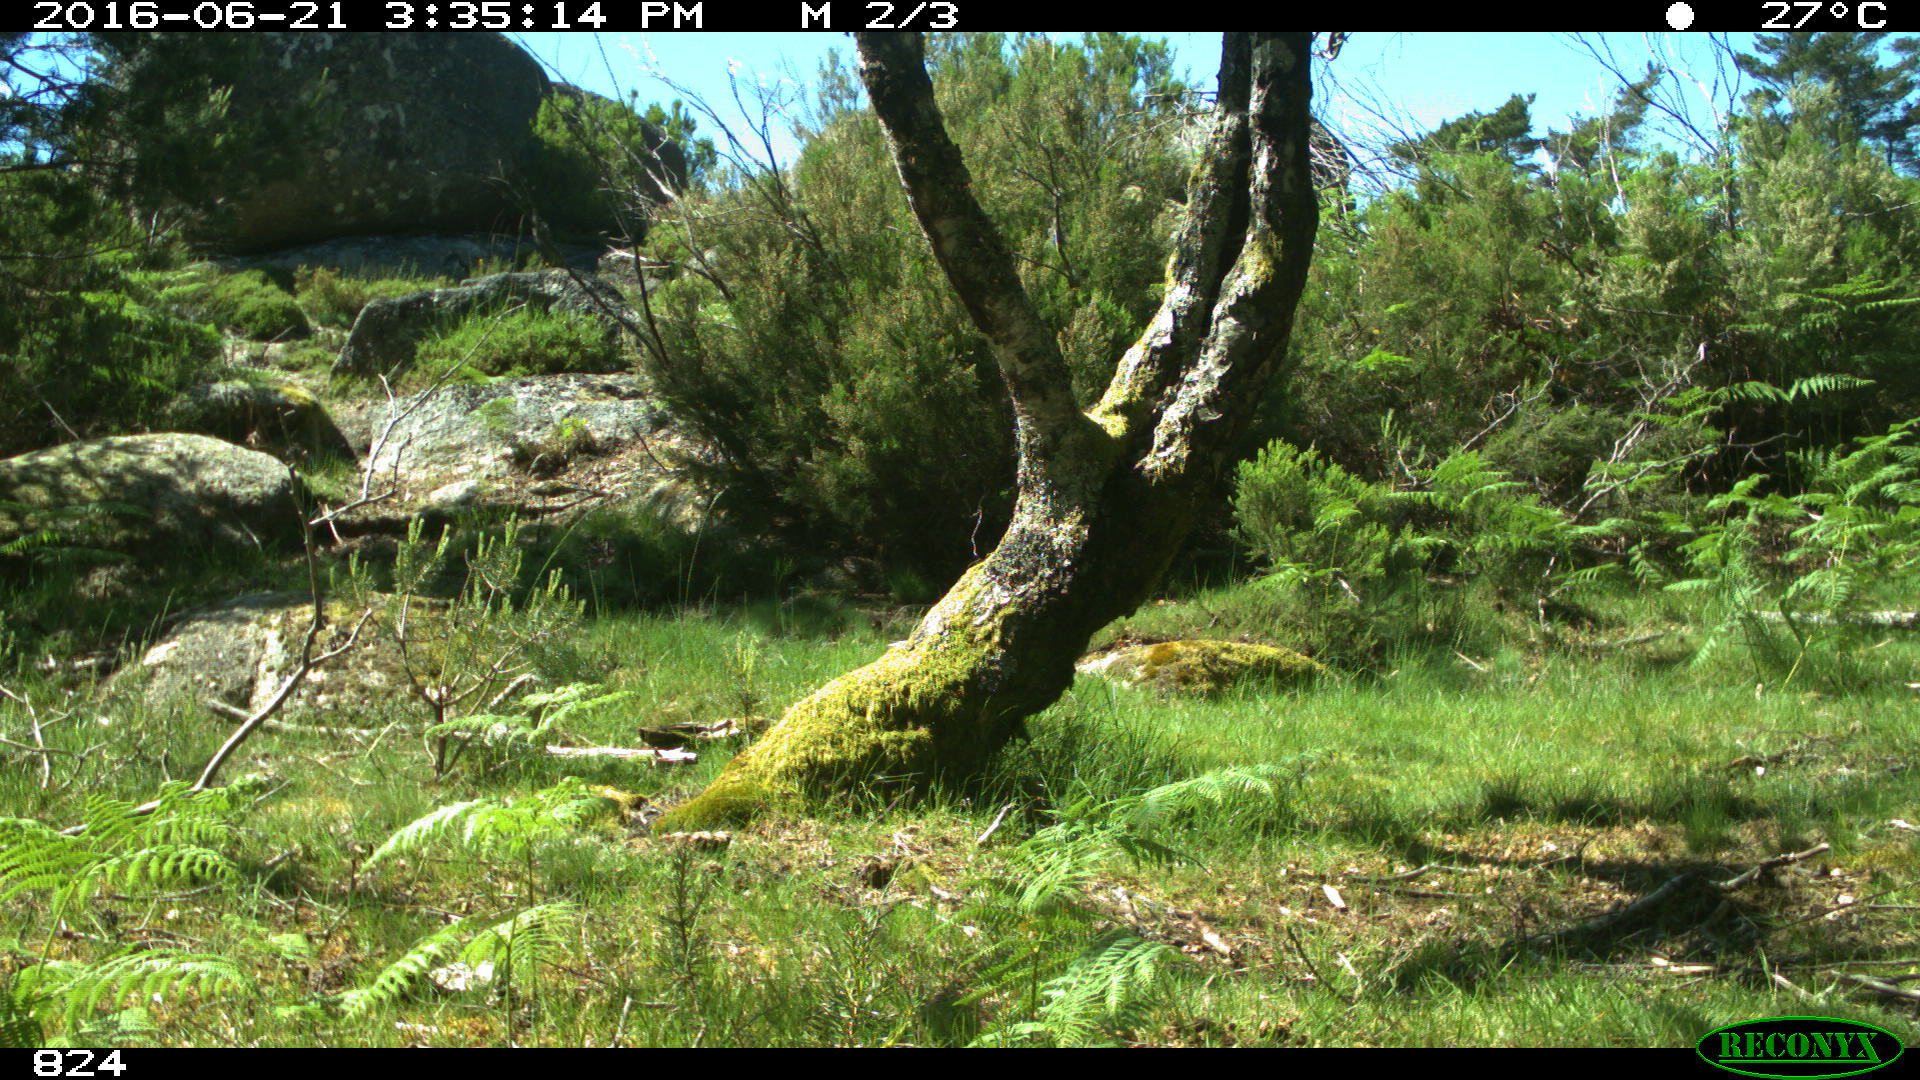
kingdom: Animalia
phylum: Chordata
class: Mammalia
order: Perissodactyla
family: Equidae
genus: Equus
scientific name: Equus caballus
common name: Horse
